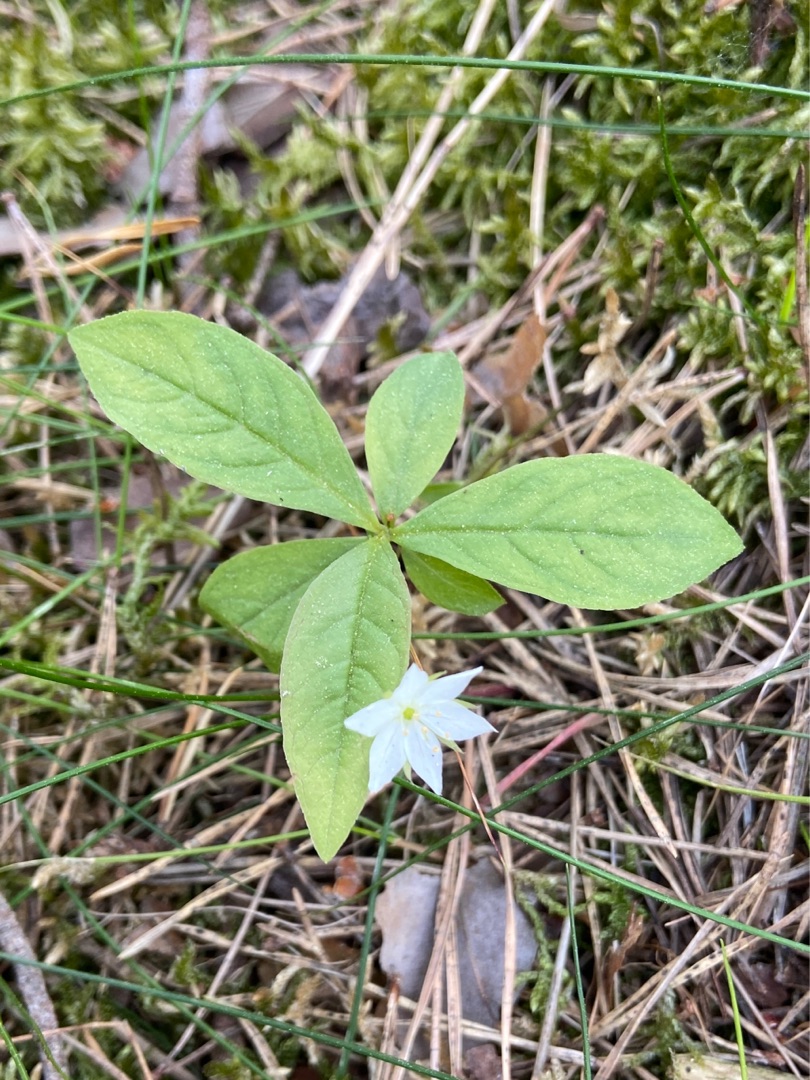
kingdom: Plantae
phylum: Tracheophyta
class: Magnoliopsida
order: Ericales
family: Primulaceae
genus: Lysimachia
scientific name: Lysimachia europaea
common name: Skovstjerne
